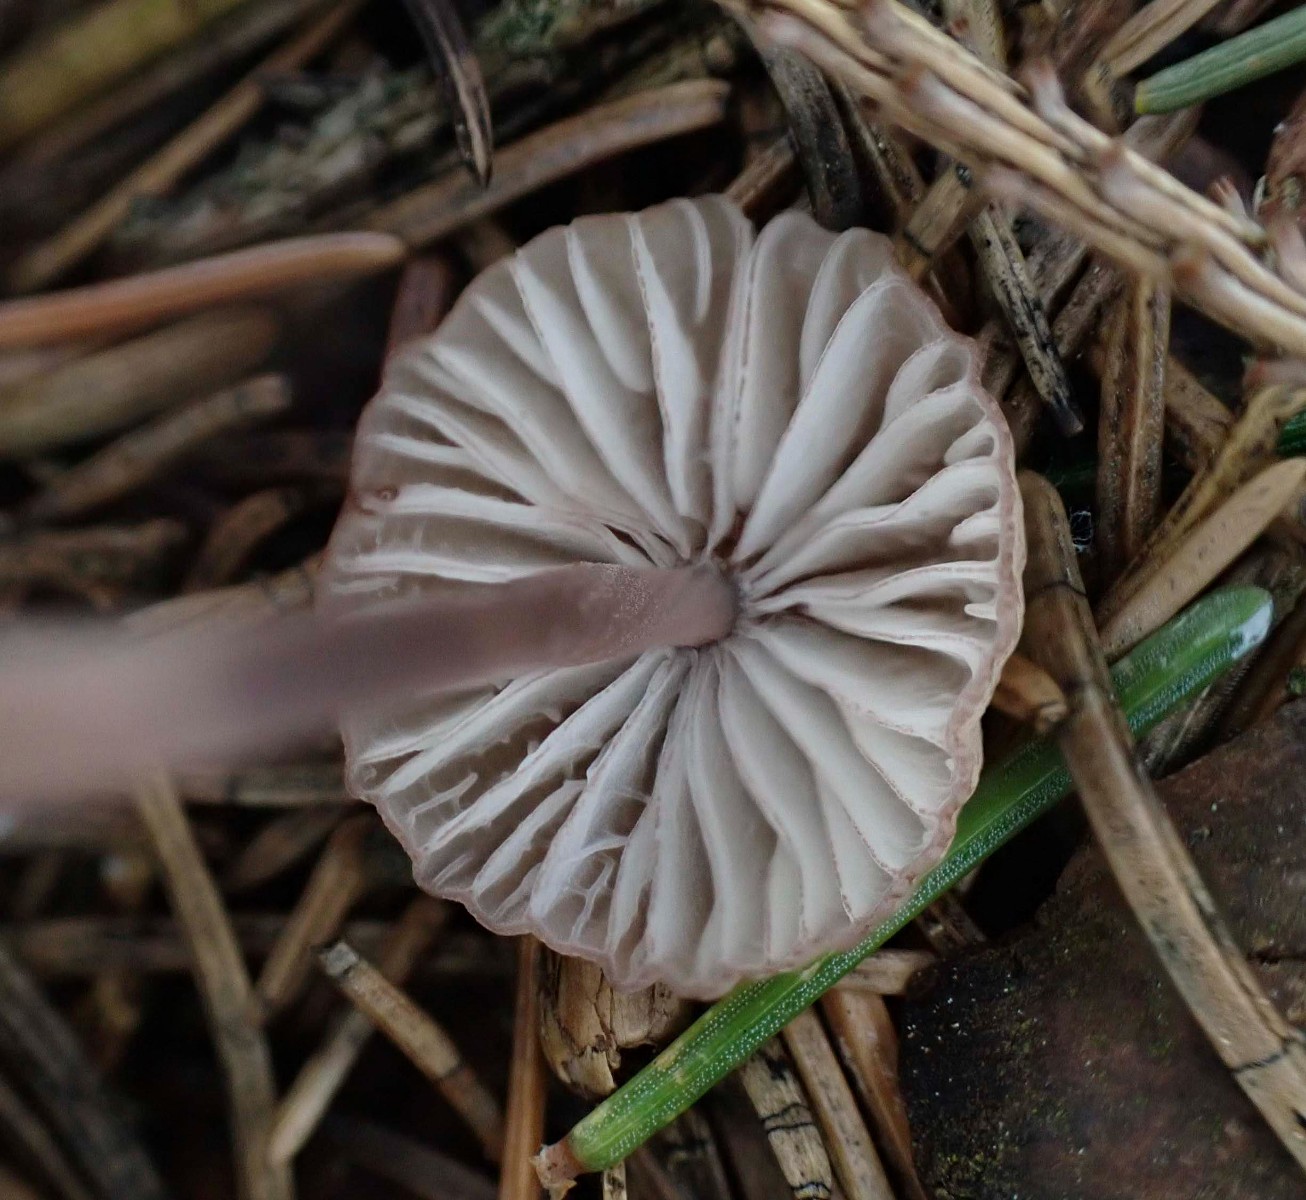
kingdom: Fungi
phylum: Basidiomycota
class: Agaricomycetes
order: Agaricales
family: Mycenaceae
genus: Mycena
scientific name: Mycena rubromarginata
